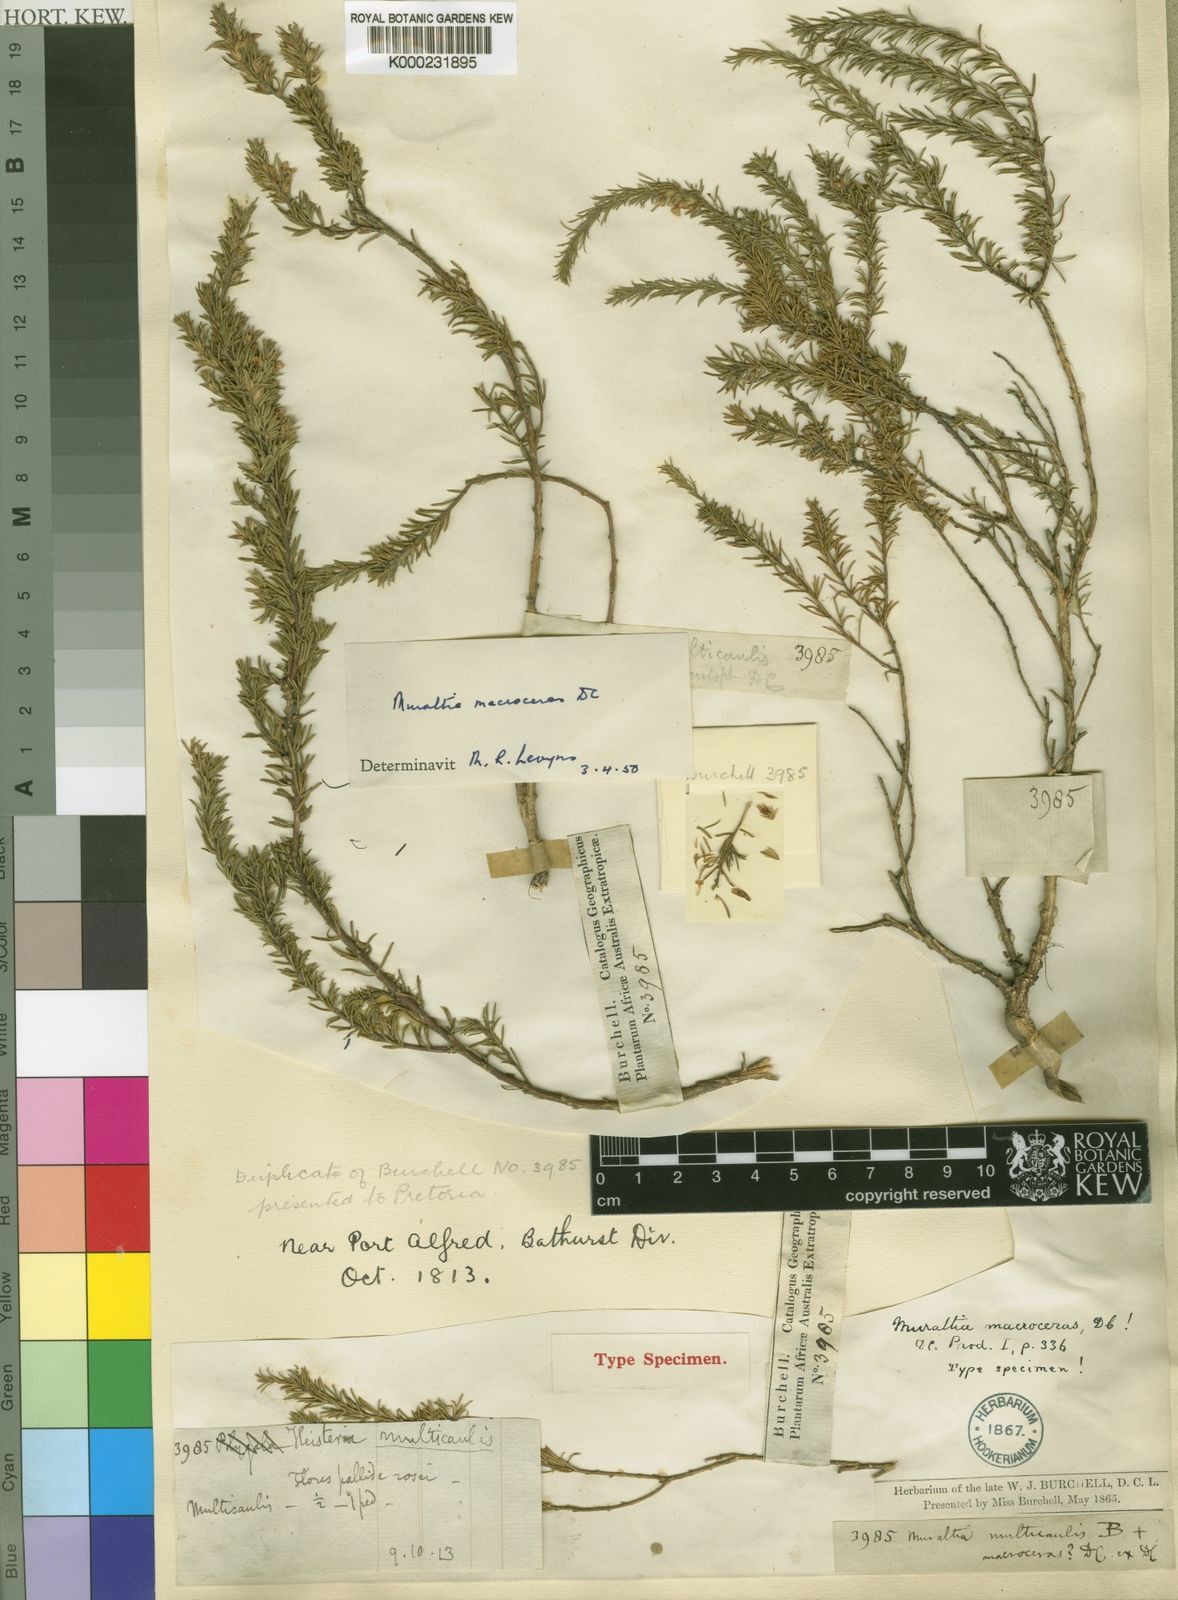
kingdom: Plantae
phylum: Tracheophyta
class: Magnoliopsida
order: Fabales
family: Polygalaceae
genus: Muraltia
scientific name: Muraltia macroceras
